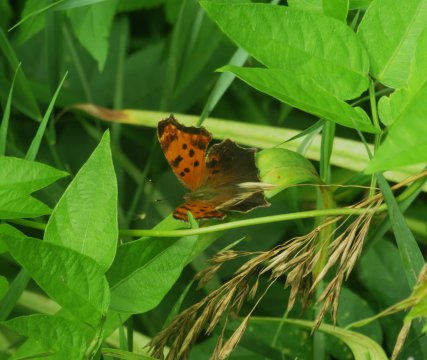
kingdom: Animalia
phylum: Arthropoda
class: Insecta
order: Lepidoptera
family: Nymphalidae
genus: Polygonia
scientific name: Polygonia comma
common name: Eastern Comma
